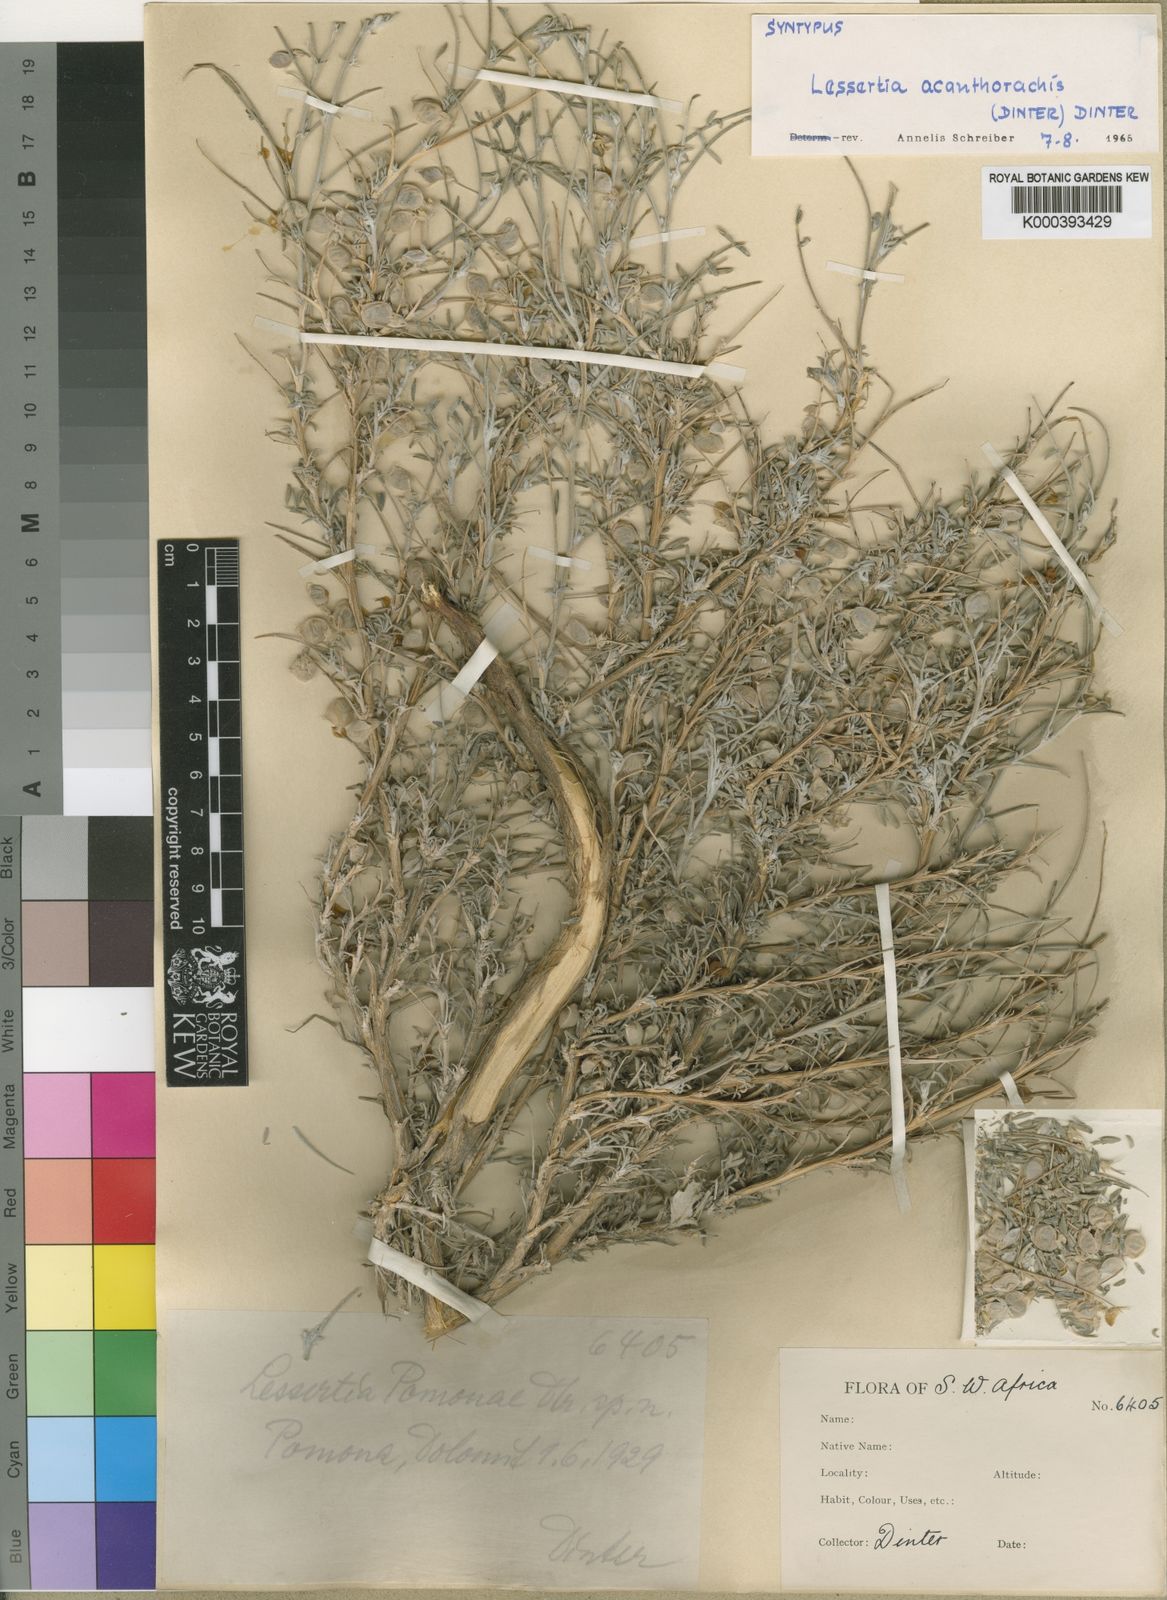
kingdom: Plantae
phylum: Tracheophyta
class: Magnoliopsida
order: Fabales
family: Fabaceae
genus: Lessertia
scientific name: Lessertia acanthorhachis
